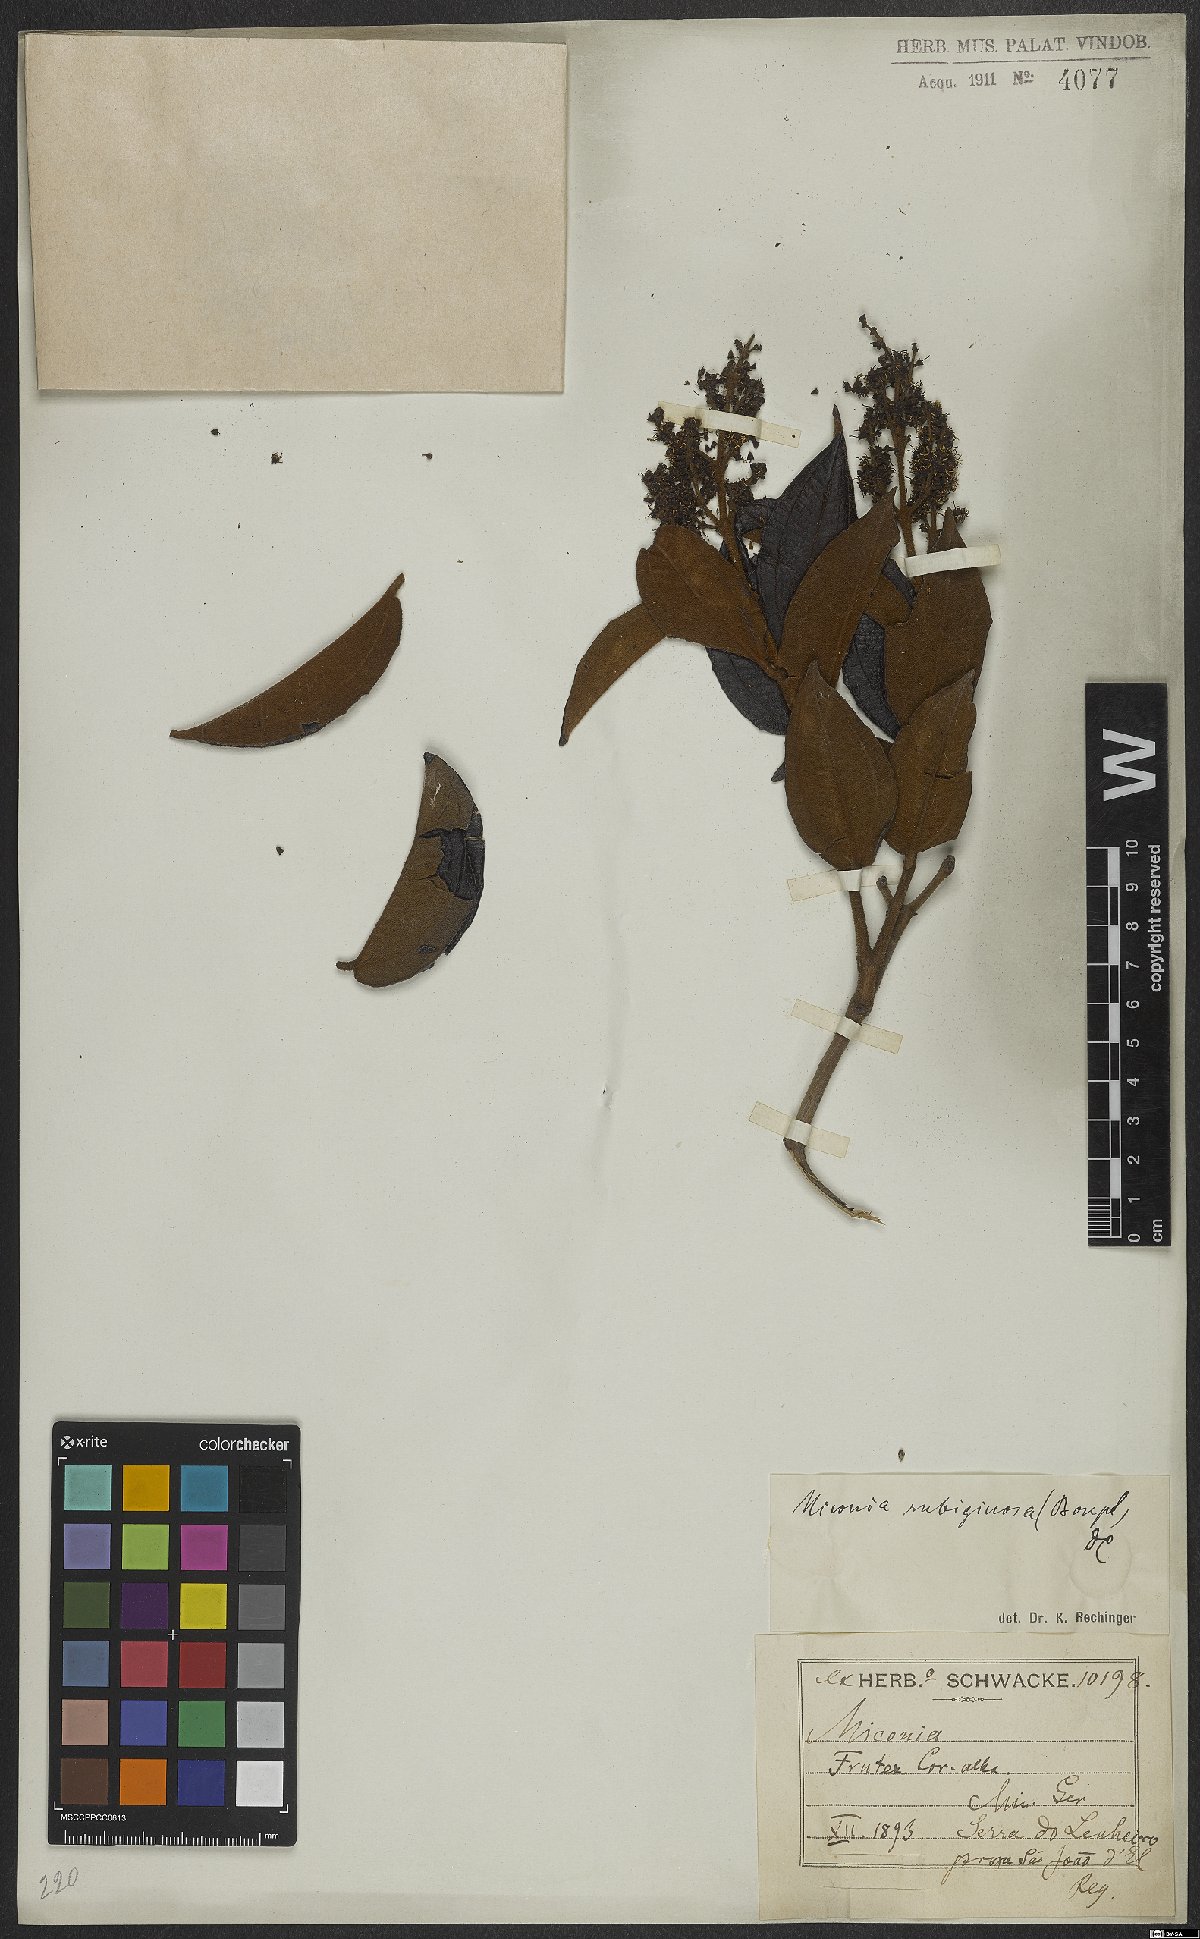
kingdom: Plantae
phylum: Tracheophyta
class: Magnoliopsida
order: Myrtales
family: Melastomataceae
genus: Miconia
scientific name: Miconia rubiginosa
